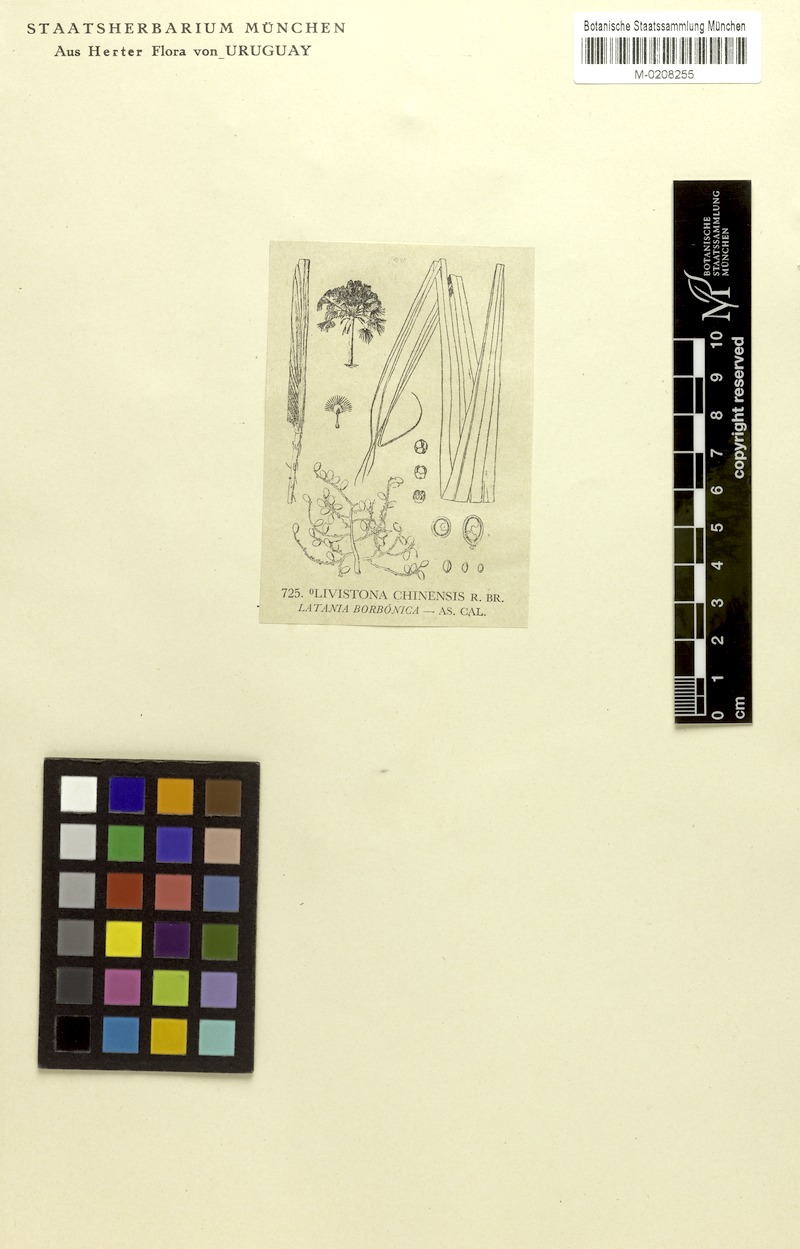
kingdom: Plantae
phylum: Tracheophyta
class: Liliopsida
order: Arecales
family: Arecaceae
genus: Livistona
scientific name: Livistona chinensis
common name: Fountain palm
